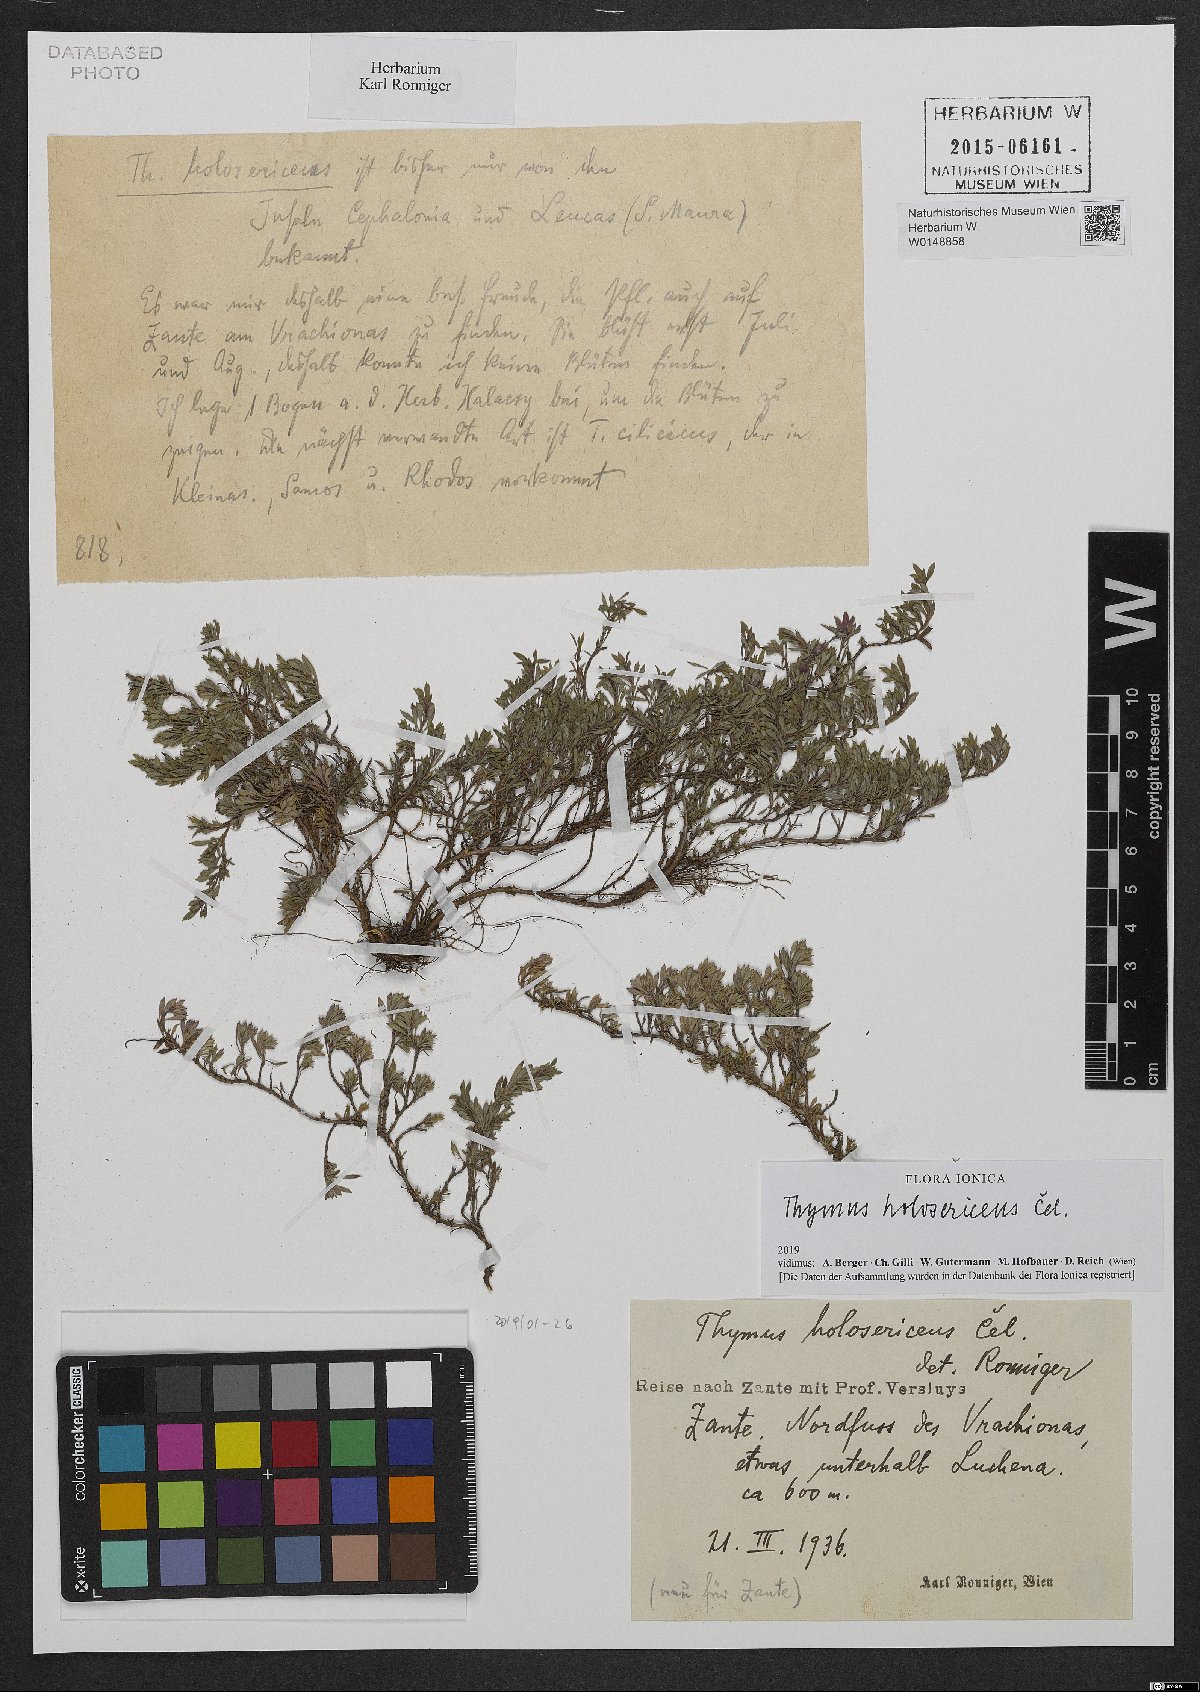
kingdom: Plantae
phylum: Tracheophyta
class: Magnoliopsida
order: Lamiales
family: Lamiaceae
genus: Thymus
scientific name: Thymus holosericeus
